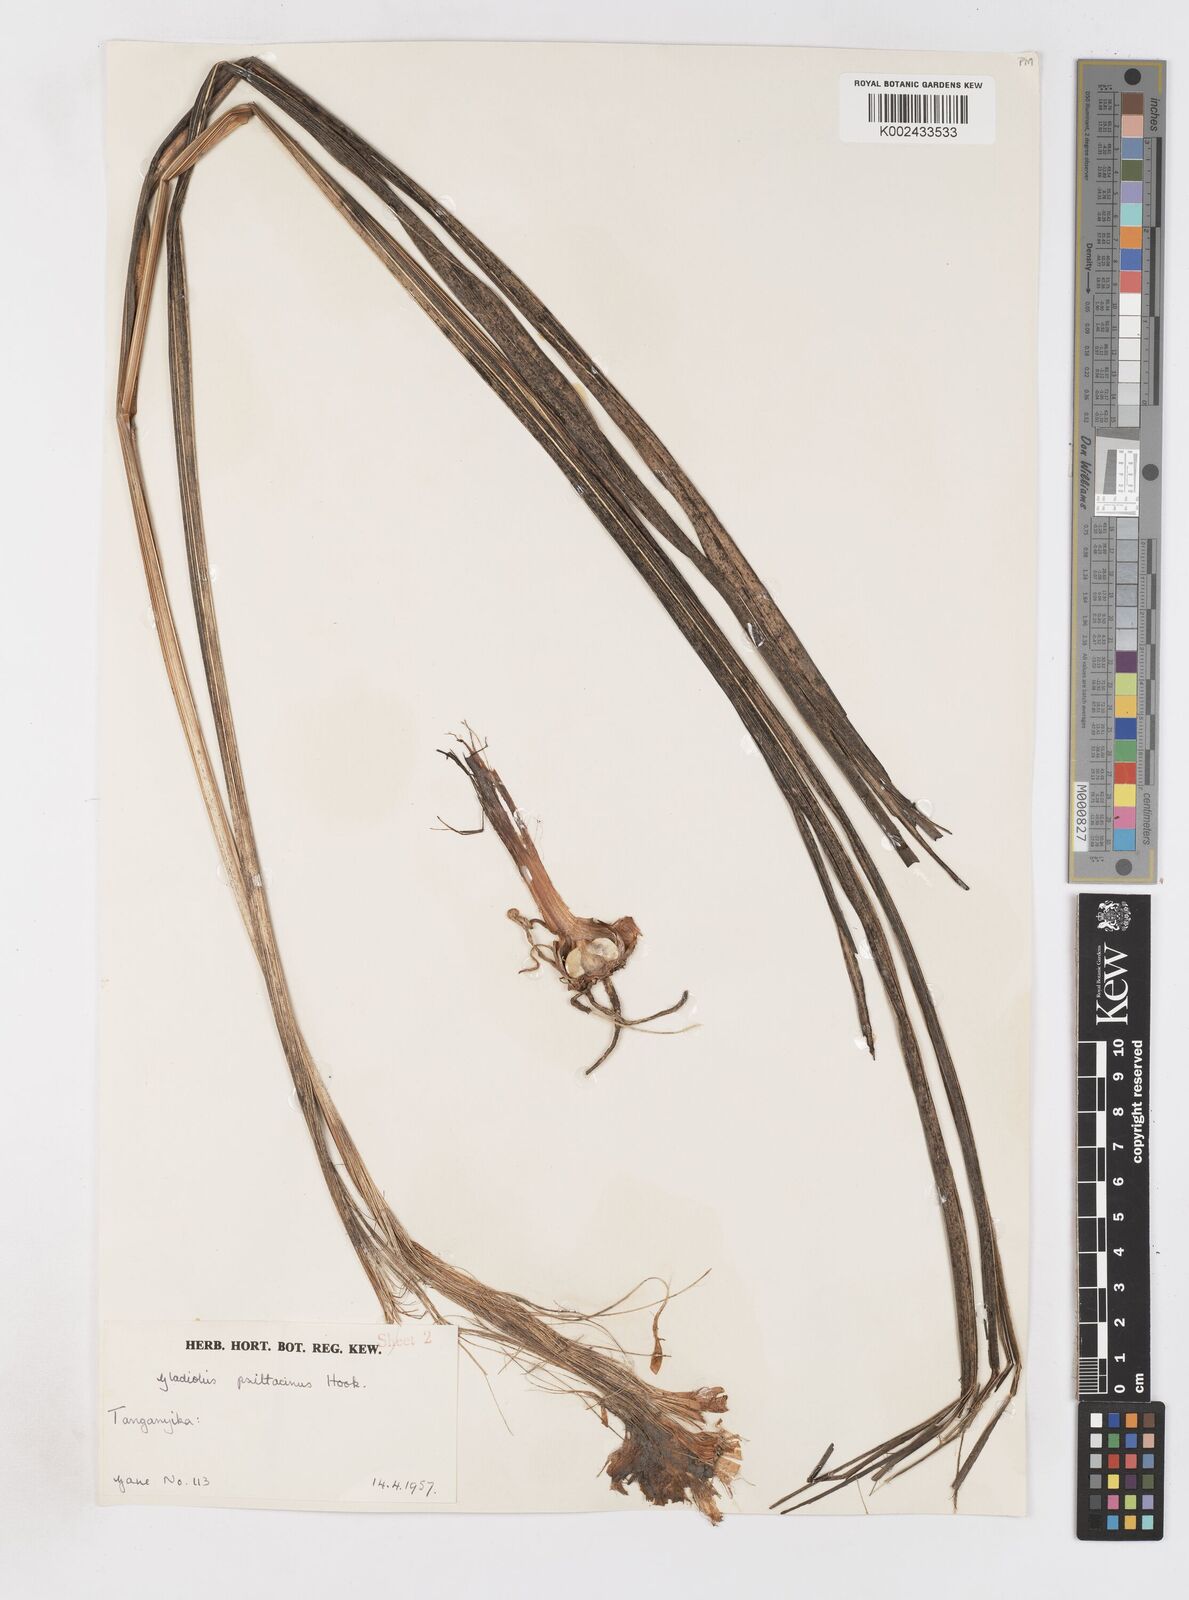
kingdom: Plantae
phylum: Tracheophyta
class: Liliopsida
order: Asparagales
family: Iridaceae
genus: Gladiolus
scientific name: Gladiolus dalenii
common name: Cornflag
